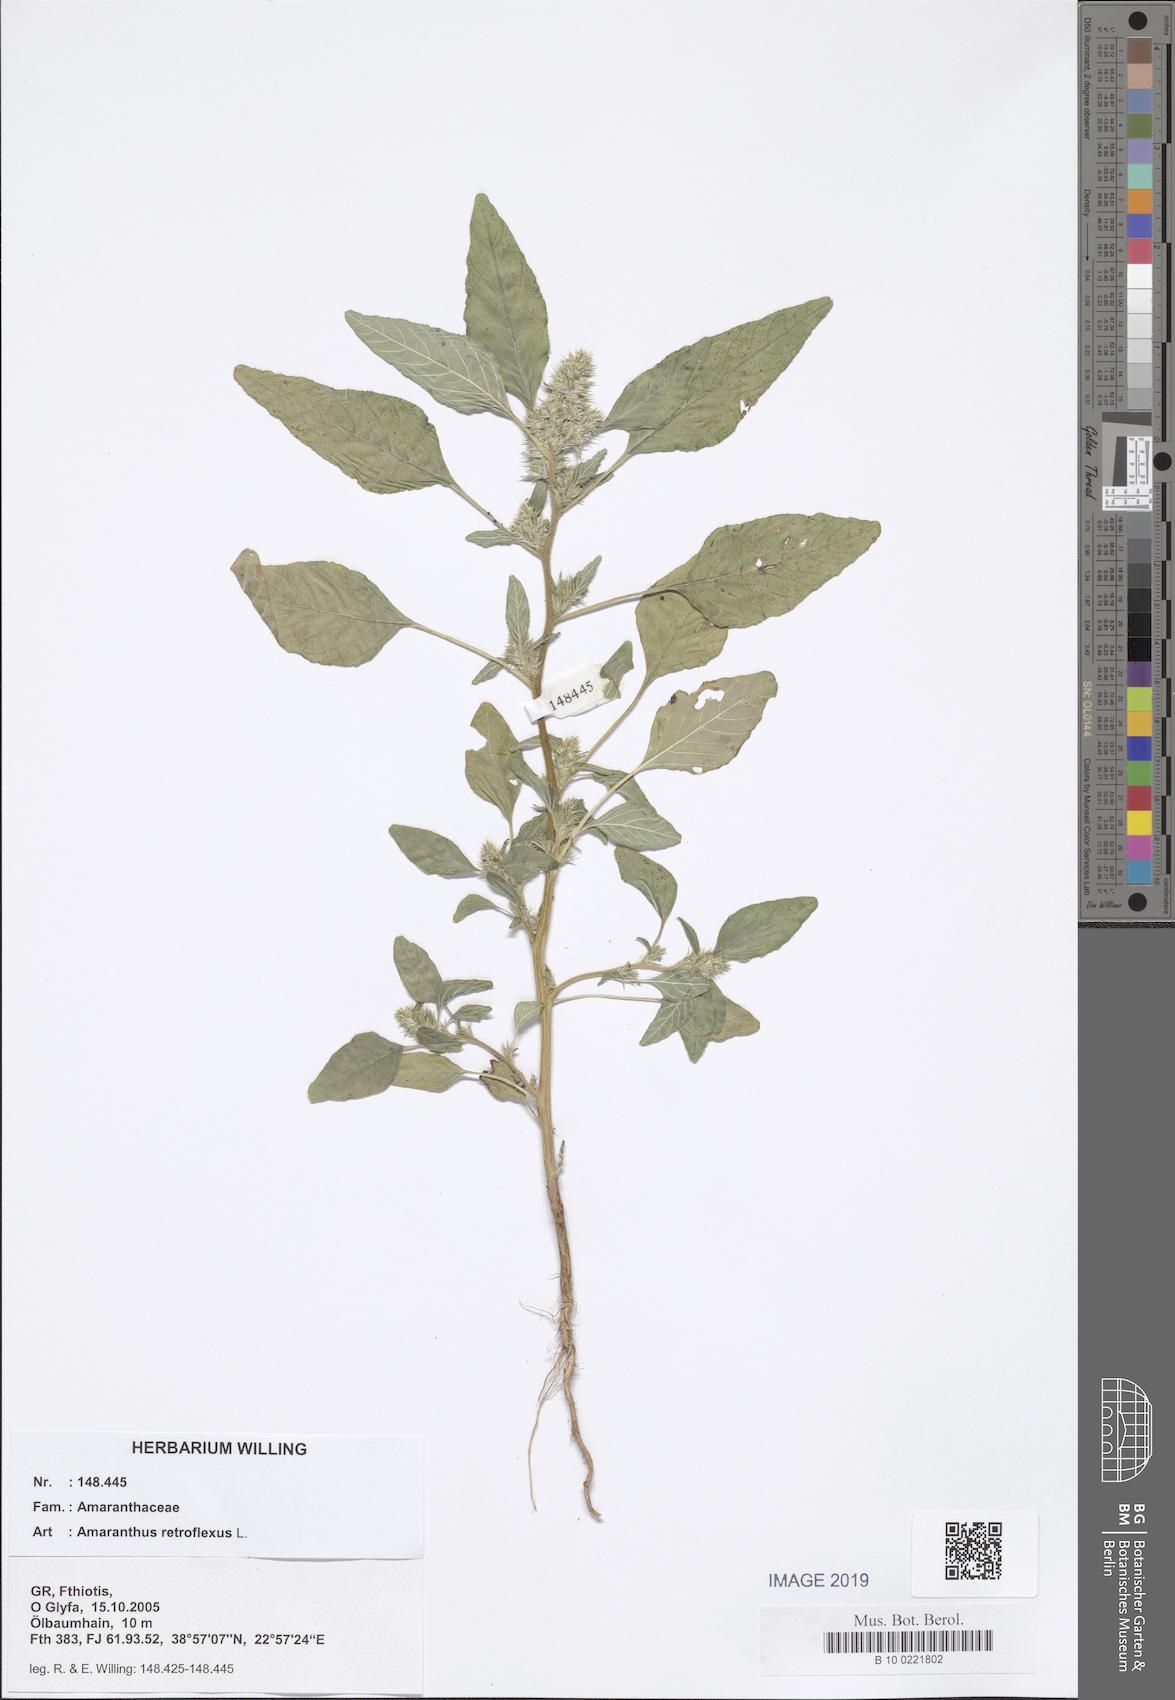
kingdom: Plantae
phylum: Tracheophyta
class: Magnoliopsida
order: Caryophyllales
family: Amaranthaceae
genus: Amaranthus
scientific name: Amaranthus retroflexus
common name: Redroot amaranth
